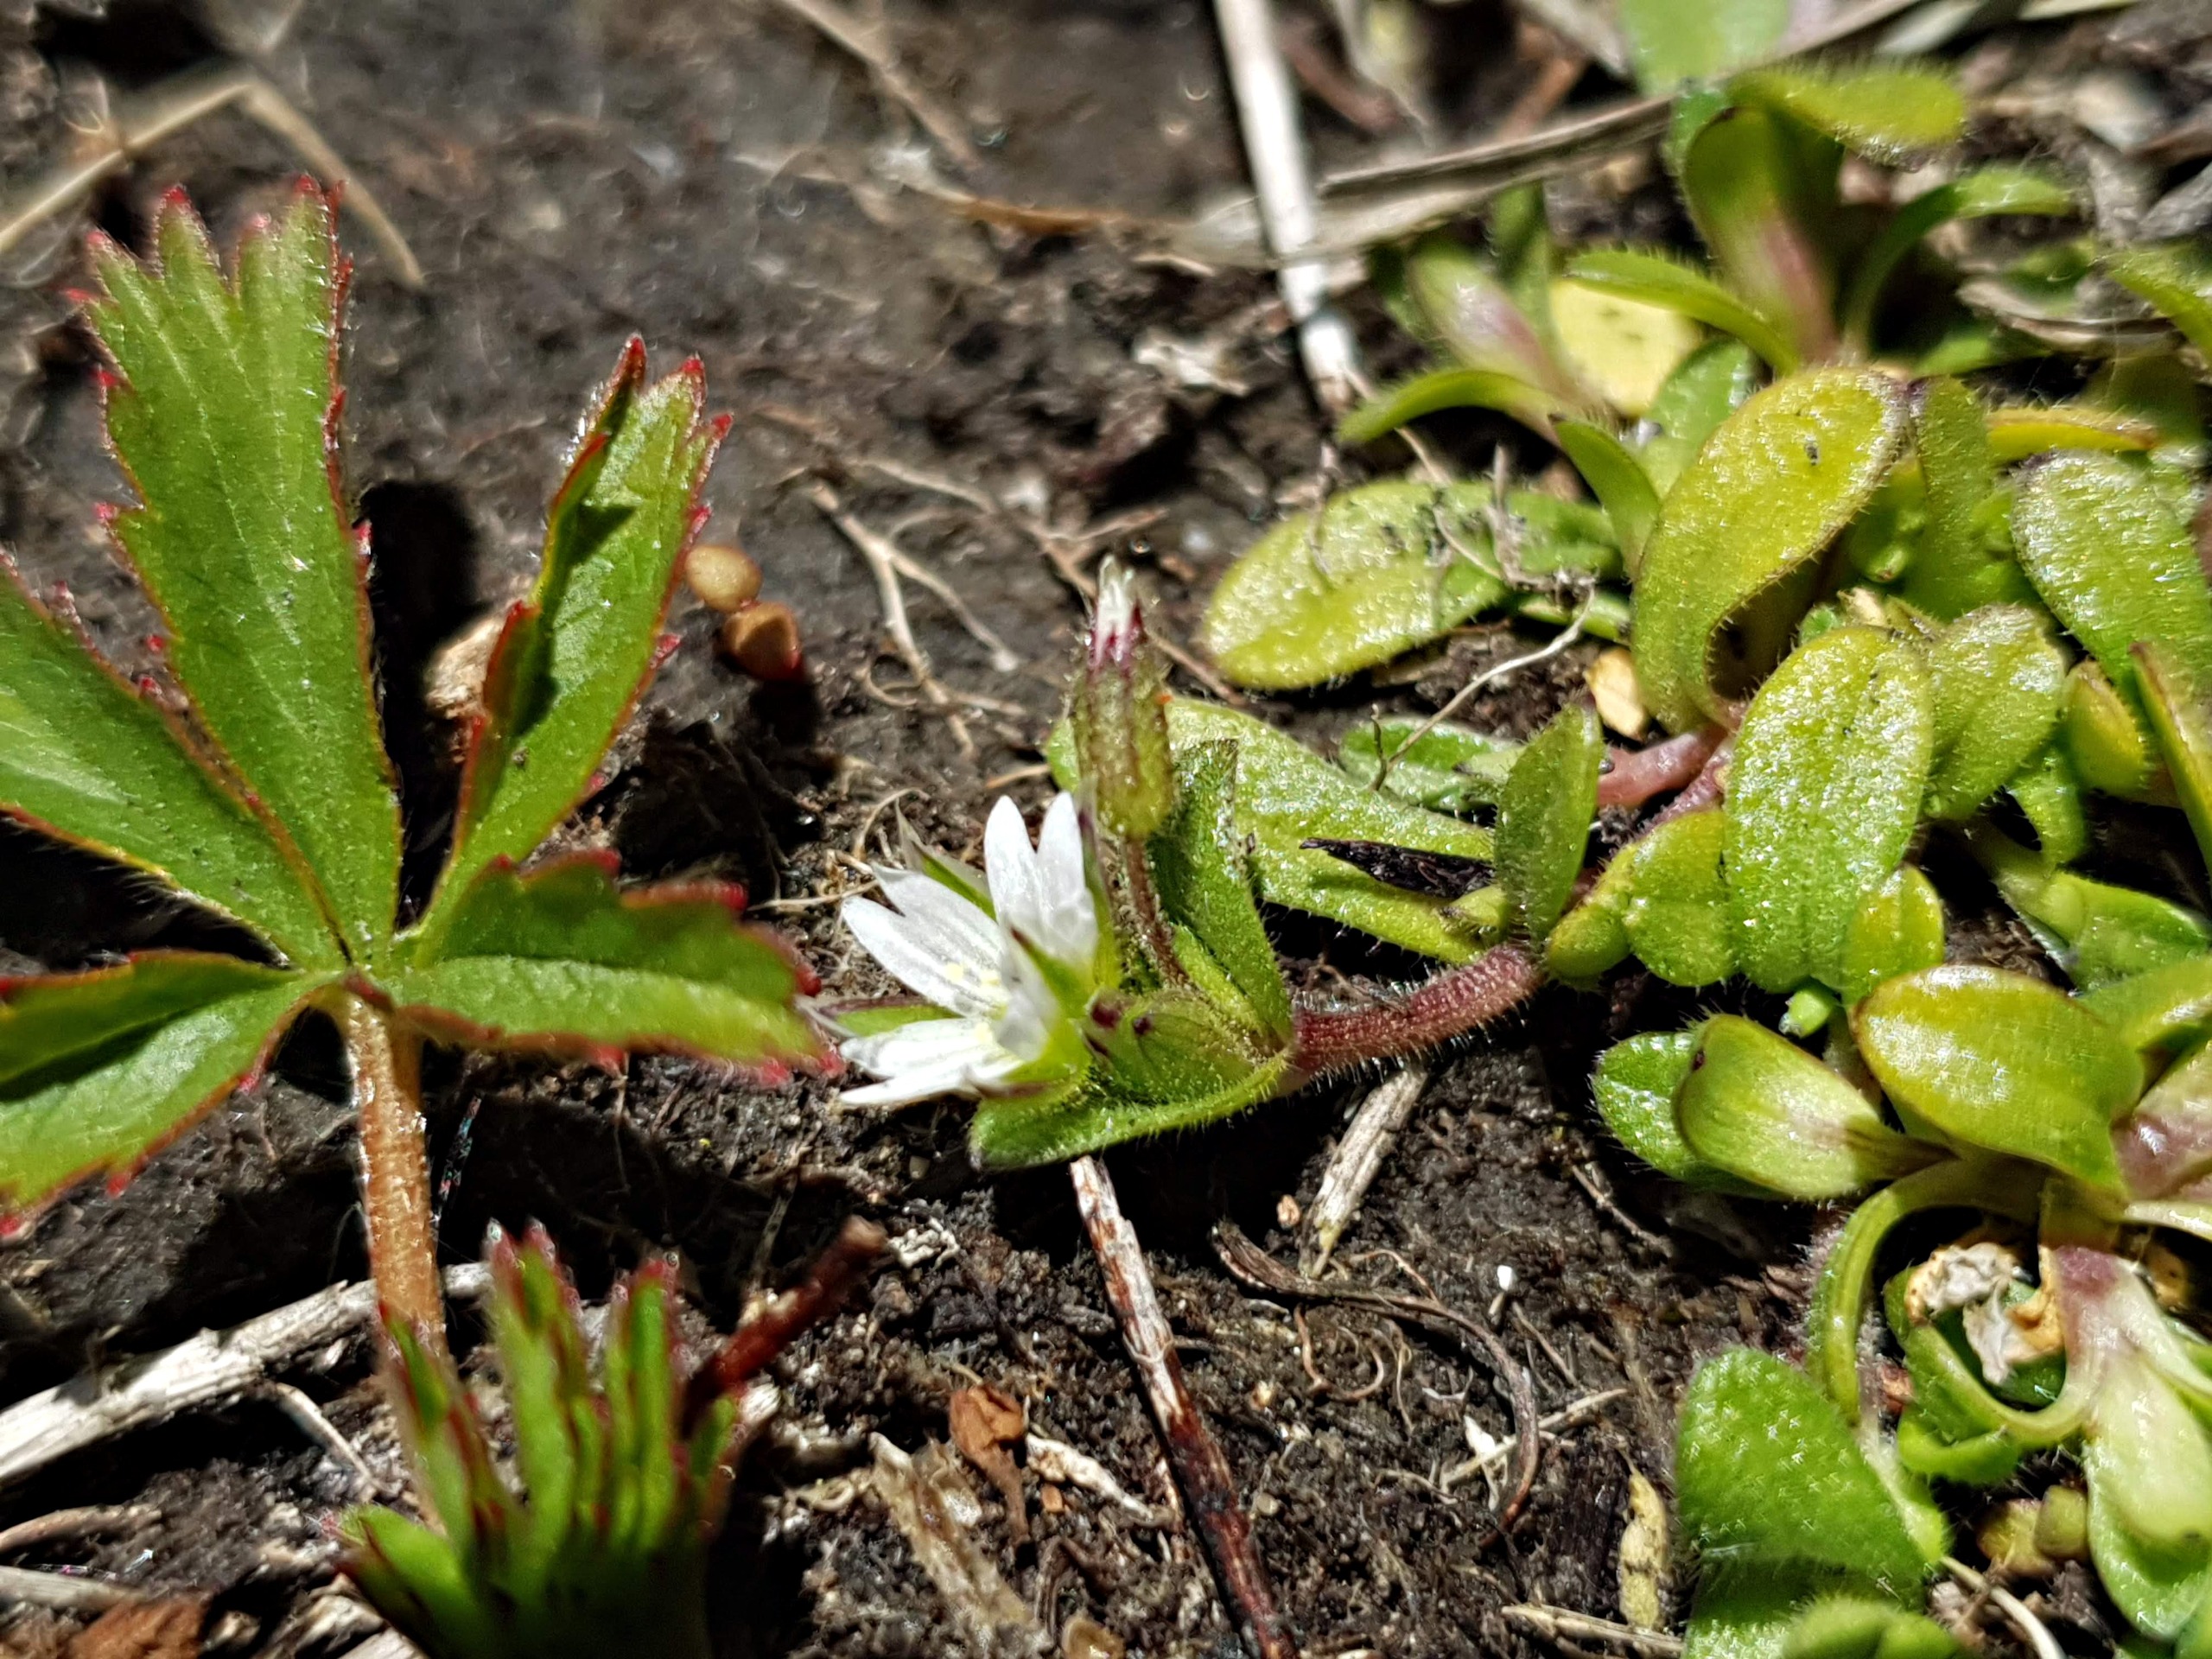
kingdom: Plantae
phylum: Tracheophyta
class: Magnoliopsida
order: Caryophyllales
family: Caryophyllaceae
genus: Cerastium
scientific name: Cerastium subtetrandrum
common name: Øresunds-hønsetarm
